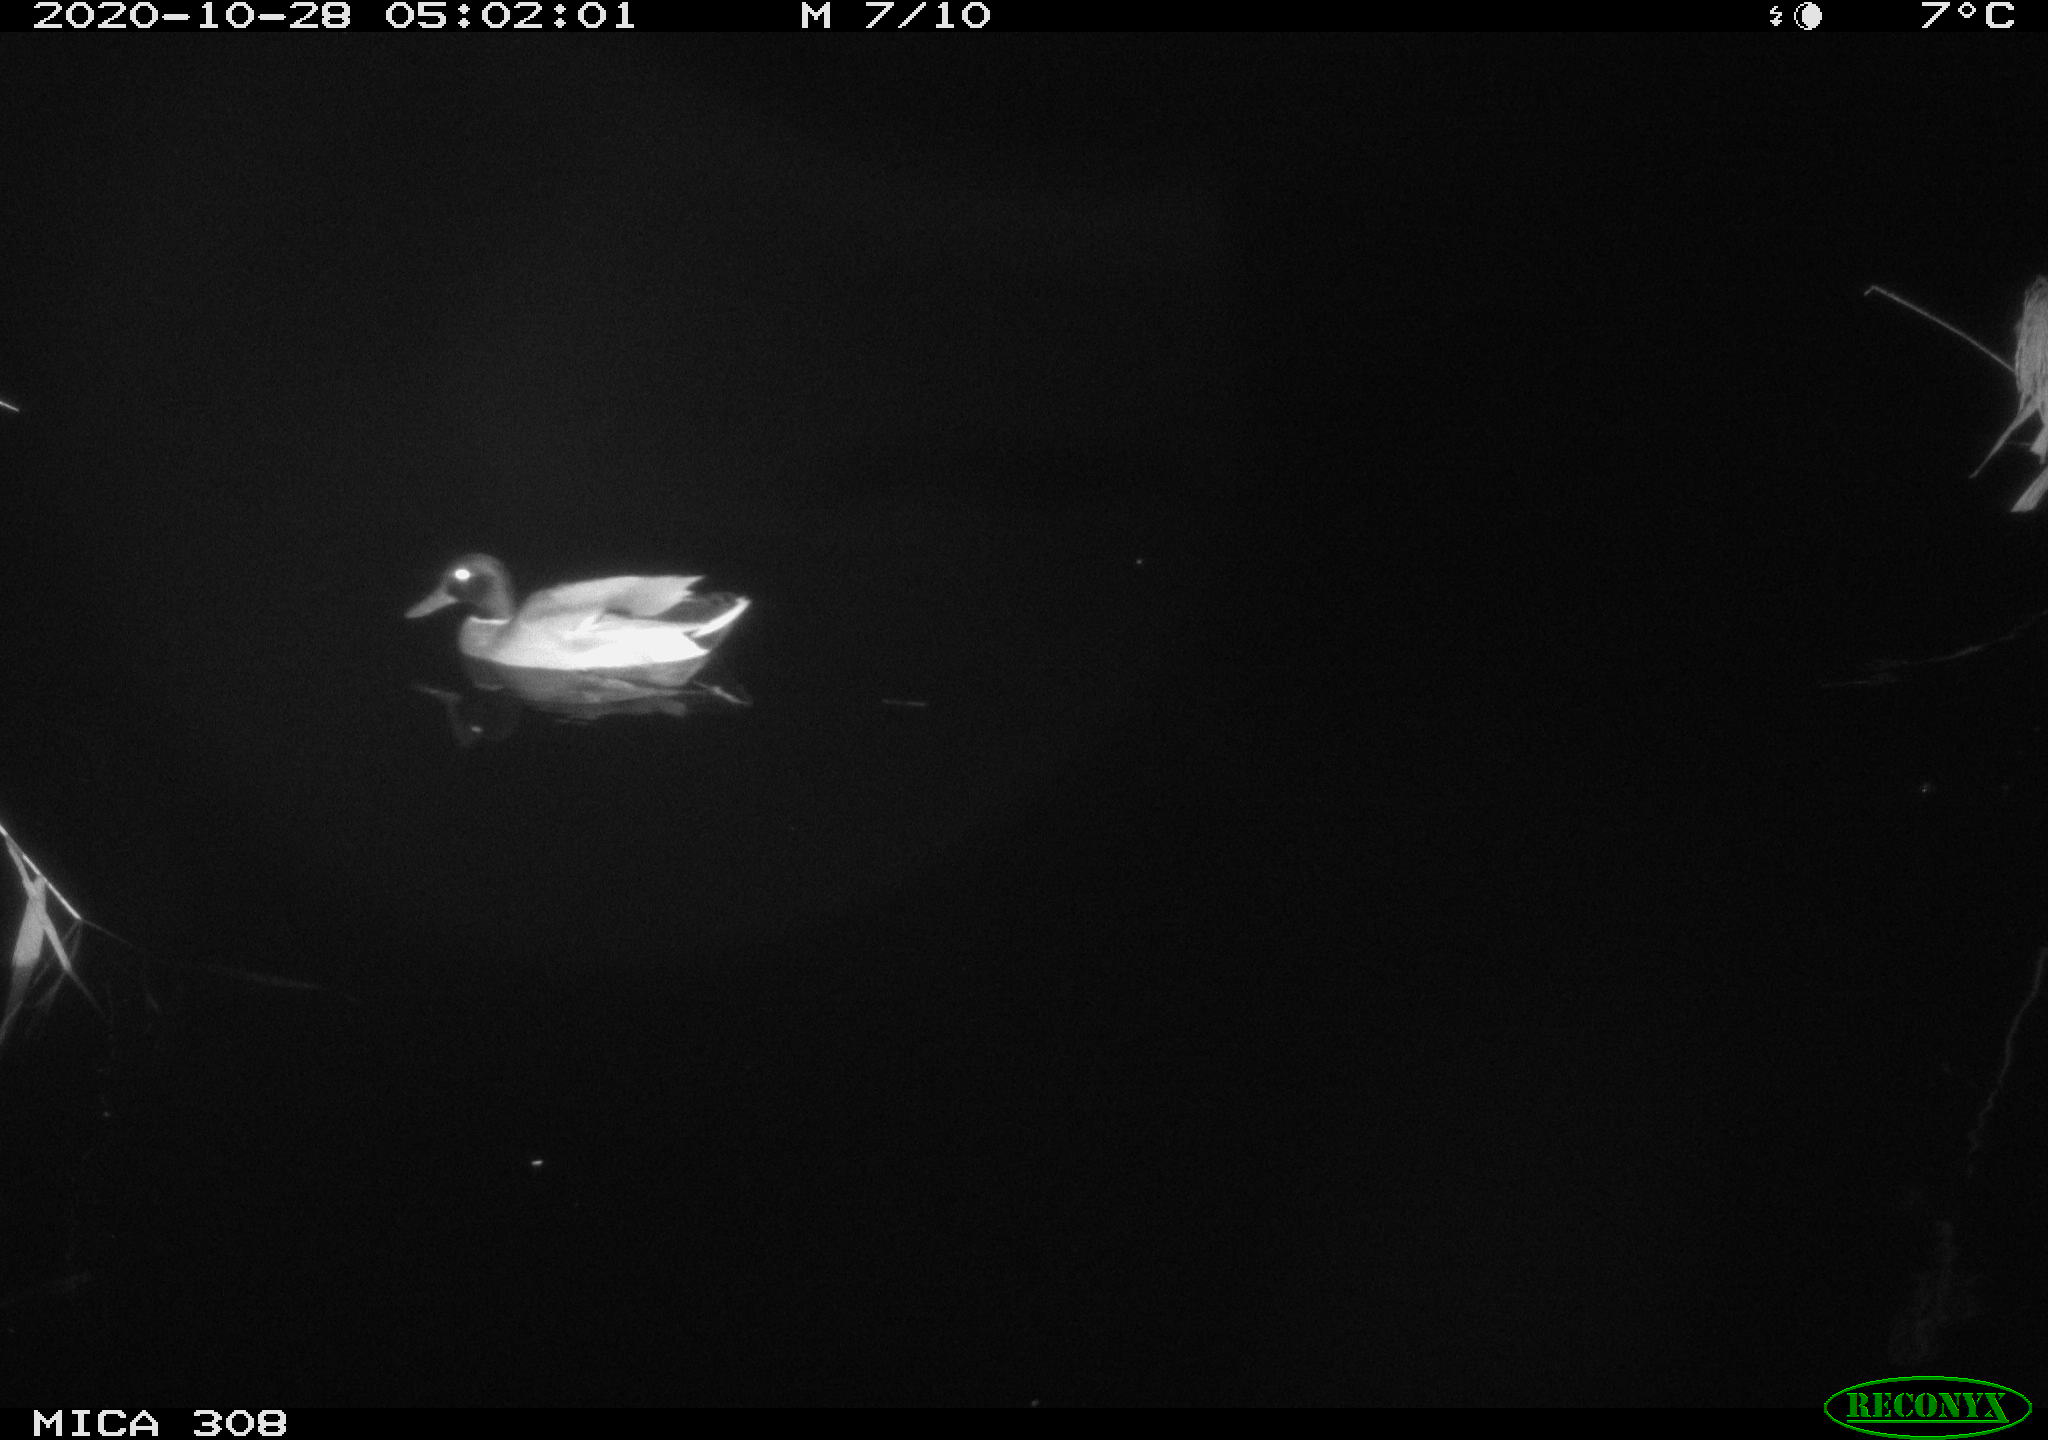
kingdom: Animalia
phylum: Chordata
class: Aves
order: Anseriformes
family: Anatidae
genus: Anas
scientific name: Anas platyrhynchos
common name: Mallard
